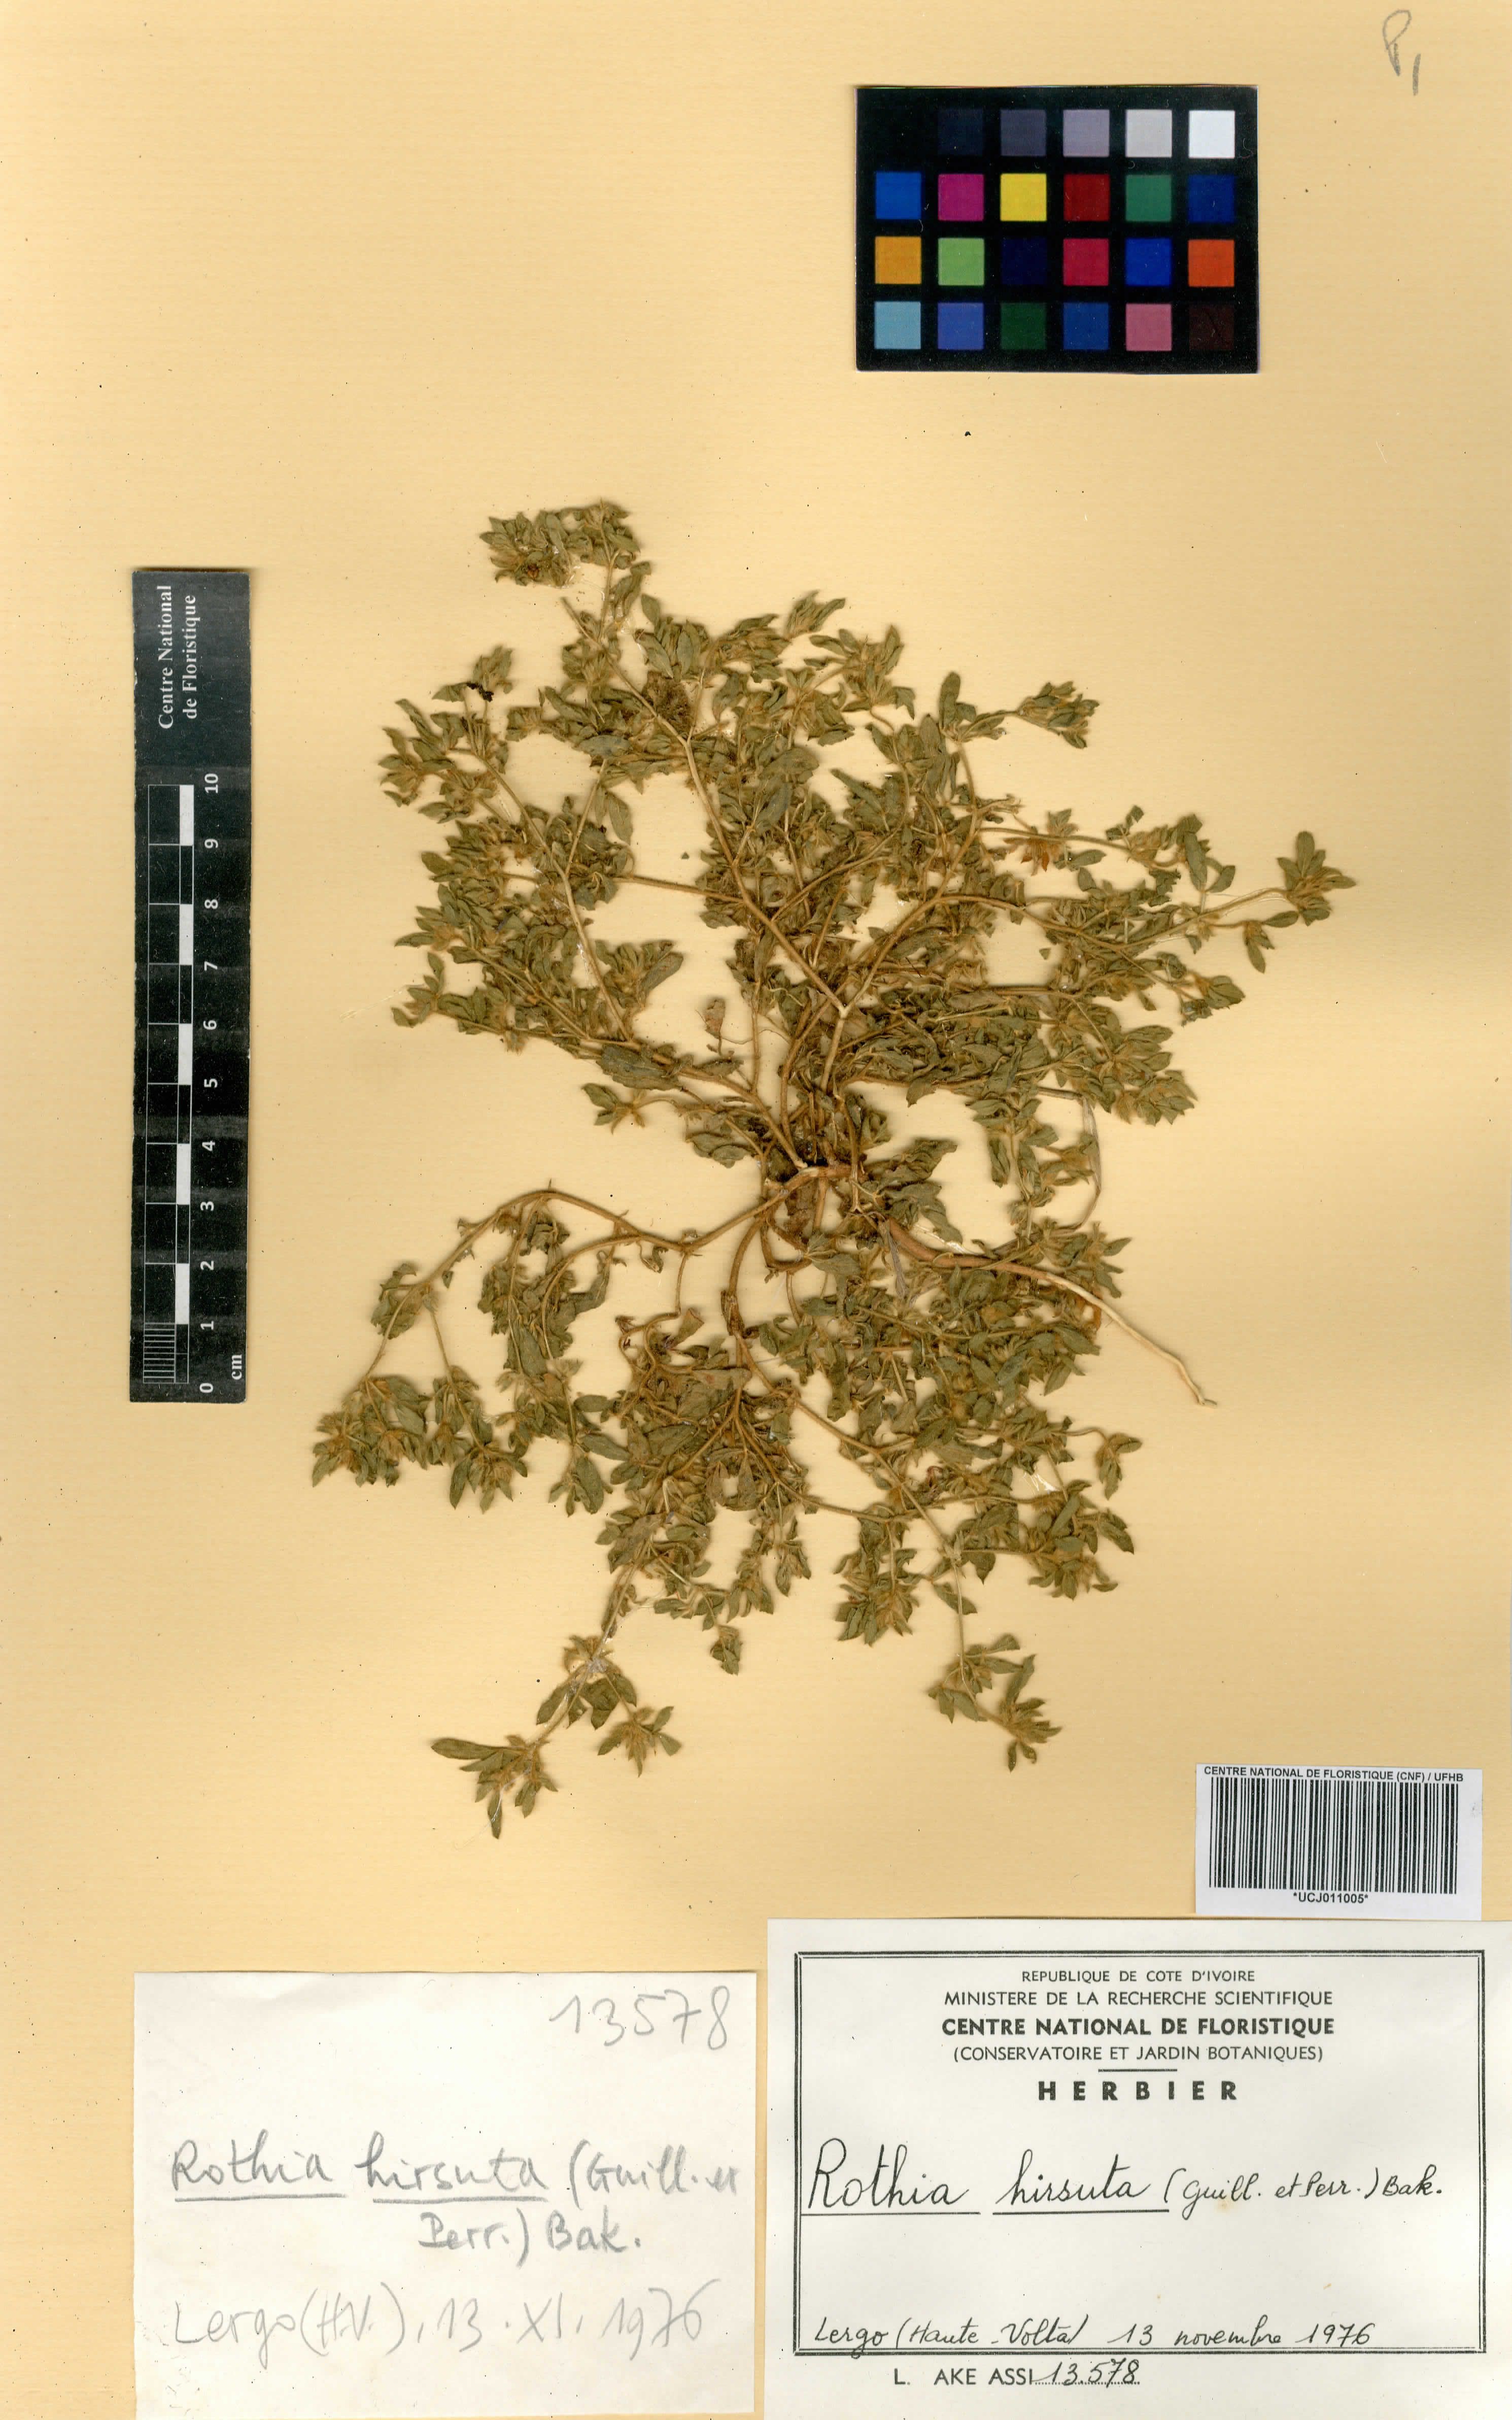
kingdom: Plantae
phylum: Tracheophyta
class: Magnoliopsida
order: Fabales
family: Fabaceae
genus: Rothia
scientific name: Rothia hirsuta
